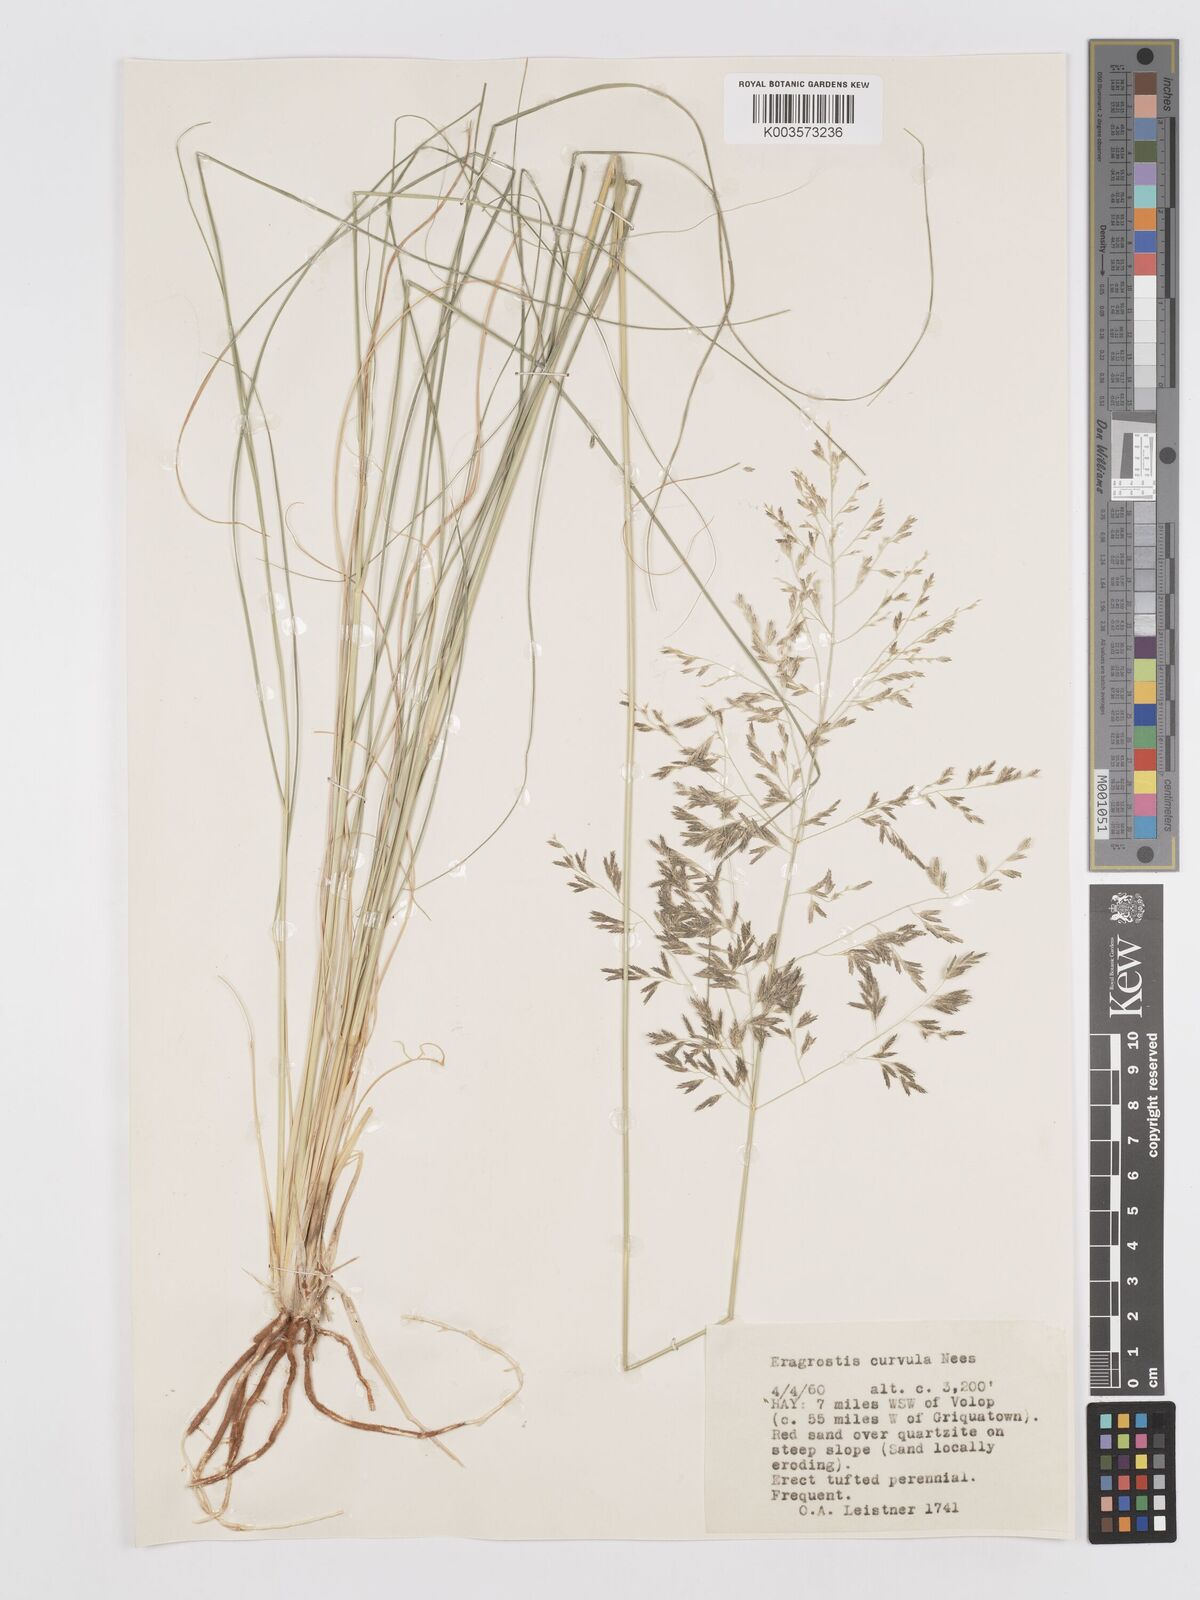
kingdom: Plantae
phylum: Tracheophyta
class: Liliopsida
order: Poales
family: Poaceae
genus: Eragrostis
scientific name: Eragrostis curvula
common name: African love-grass
